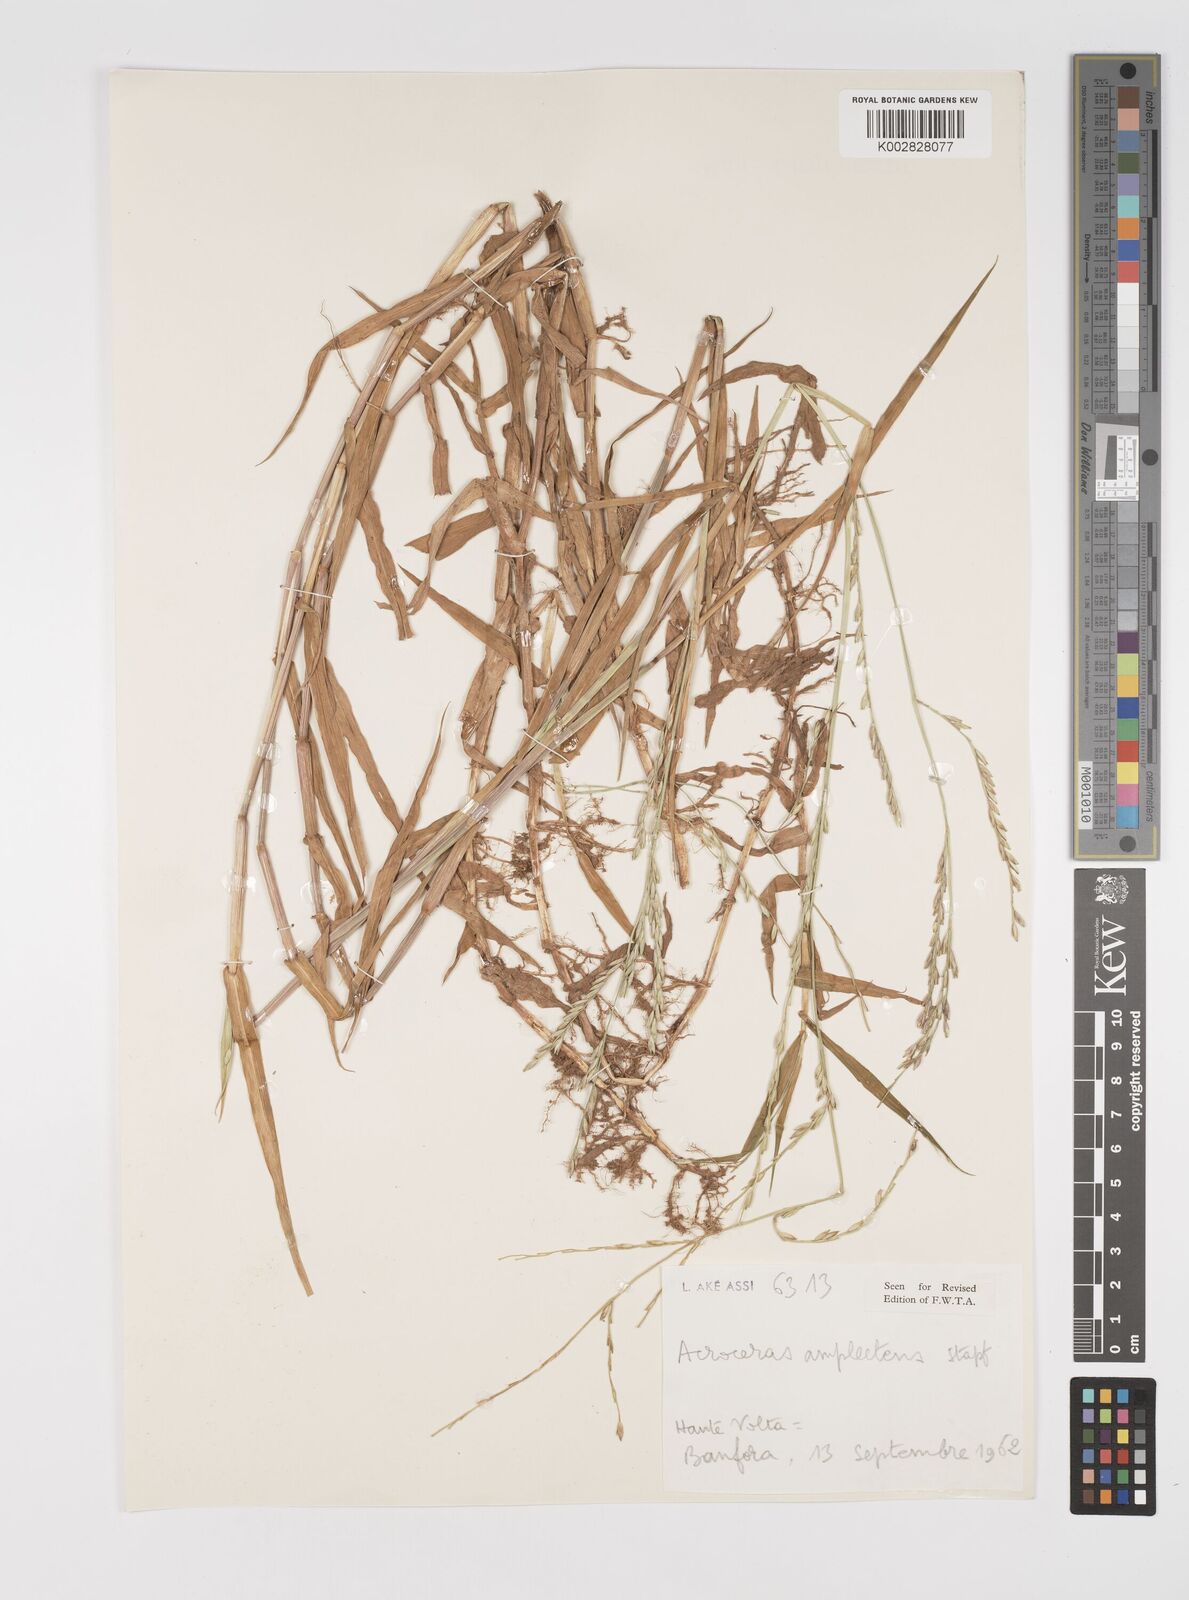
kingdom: Plantae
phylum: Tracheophyta
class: Liliopsida
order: Poales
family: Poaceae
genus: Acroceras
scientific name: Acroceras amplectens
